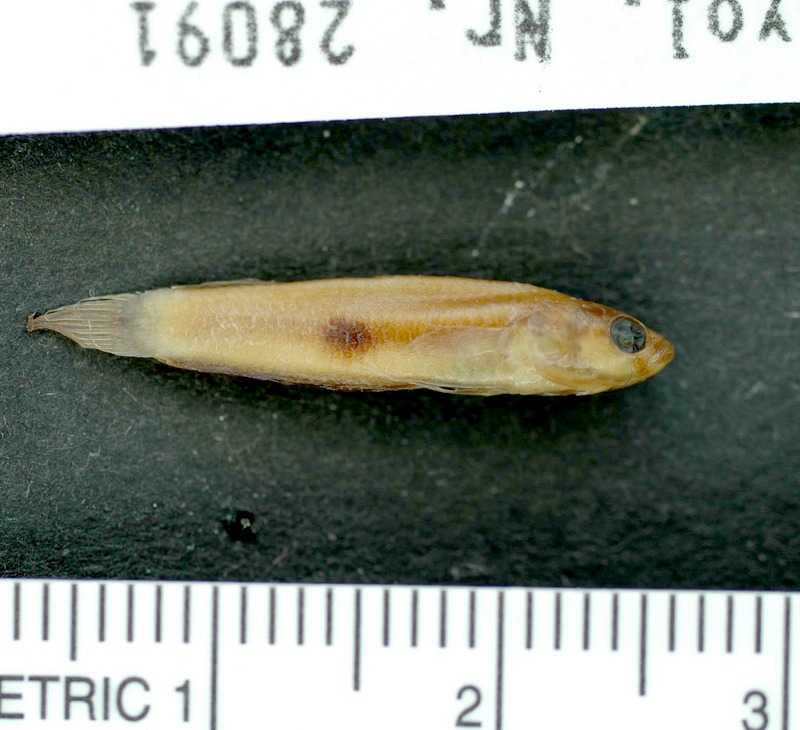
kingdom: Animalia
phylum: Chordata
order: Perciformes
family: Osphronemidae
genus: Betta
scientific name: Betta brownorum
